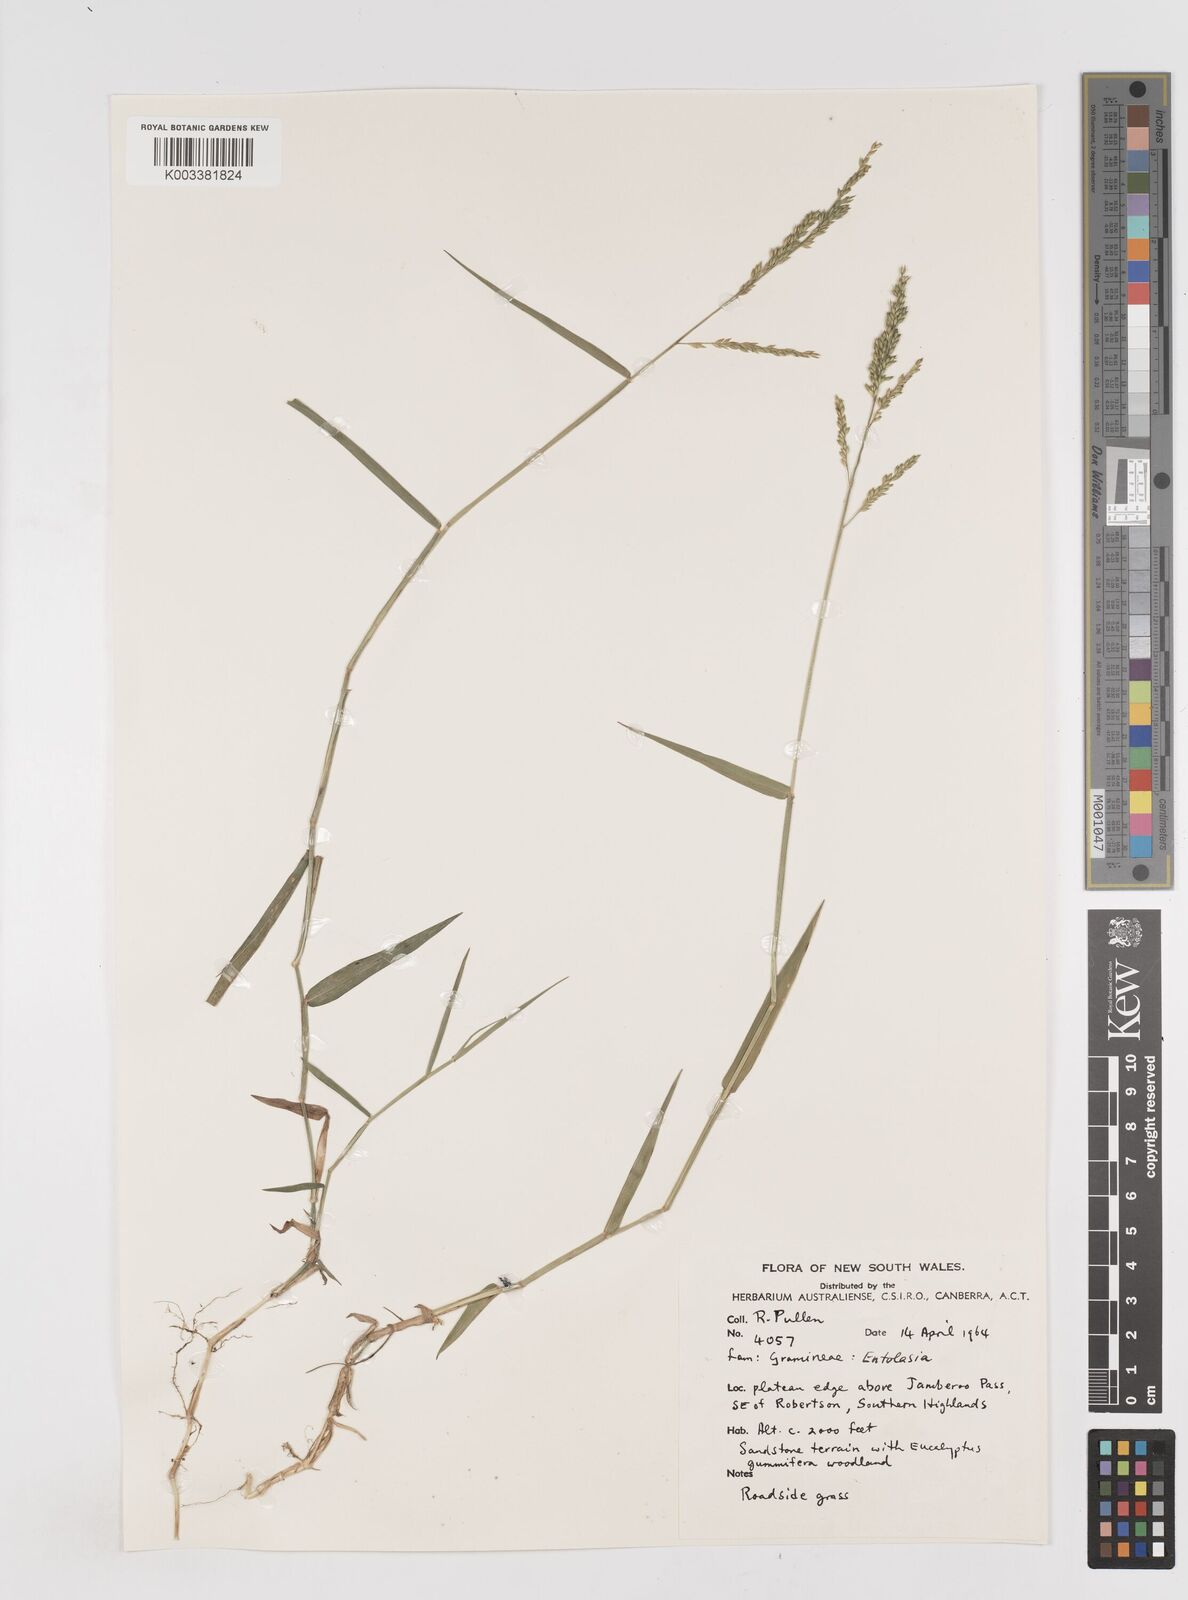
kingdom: Plantae
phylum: Tracheophyta
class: Liliopsida
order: Poales
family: Poaceae
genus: Entolasia
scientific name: Entolasia
